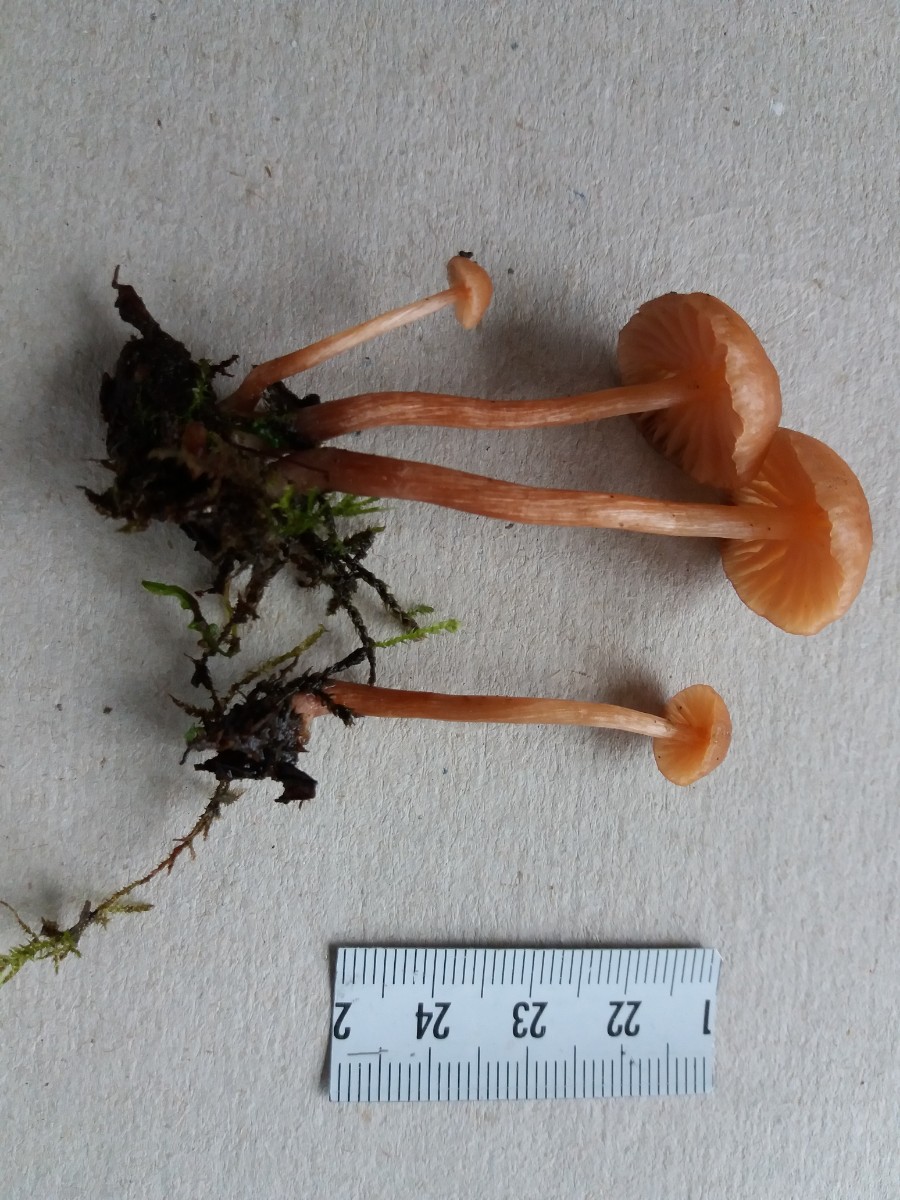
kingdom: Fungi
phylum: Basidiomycota
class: Agaricomycetes
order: Agaricales
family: Hydnangiaceae
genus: Laccaria
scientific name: Laccaria laccata
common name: rød ametysthat
